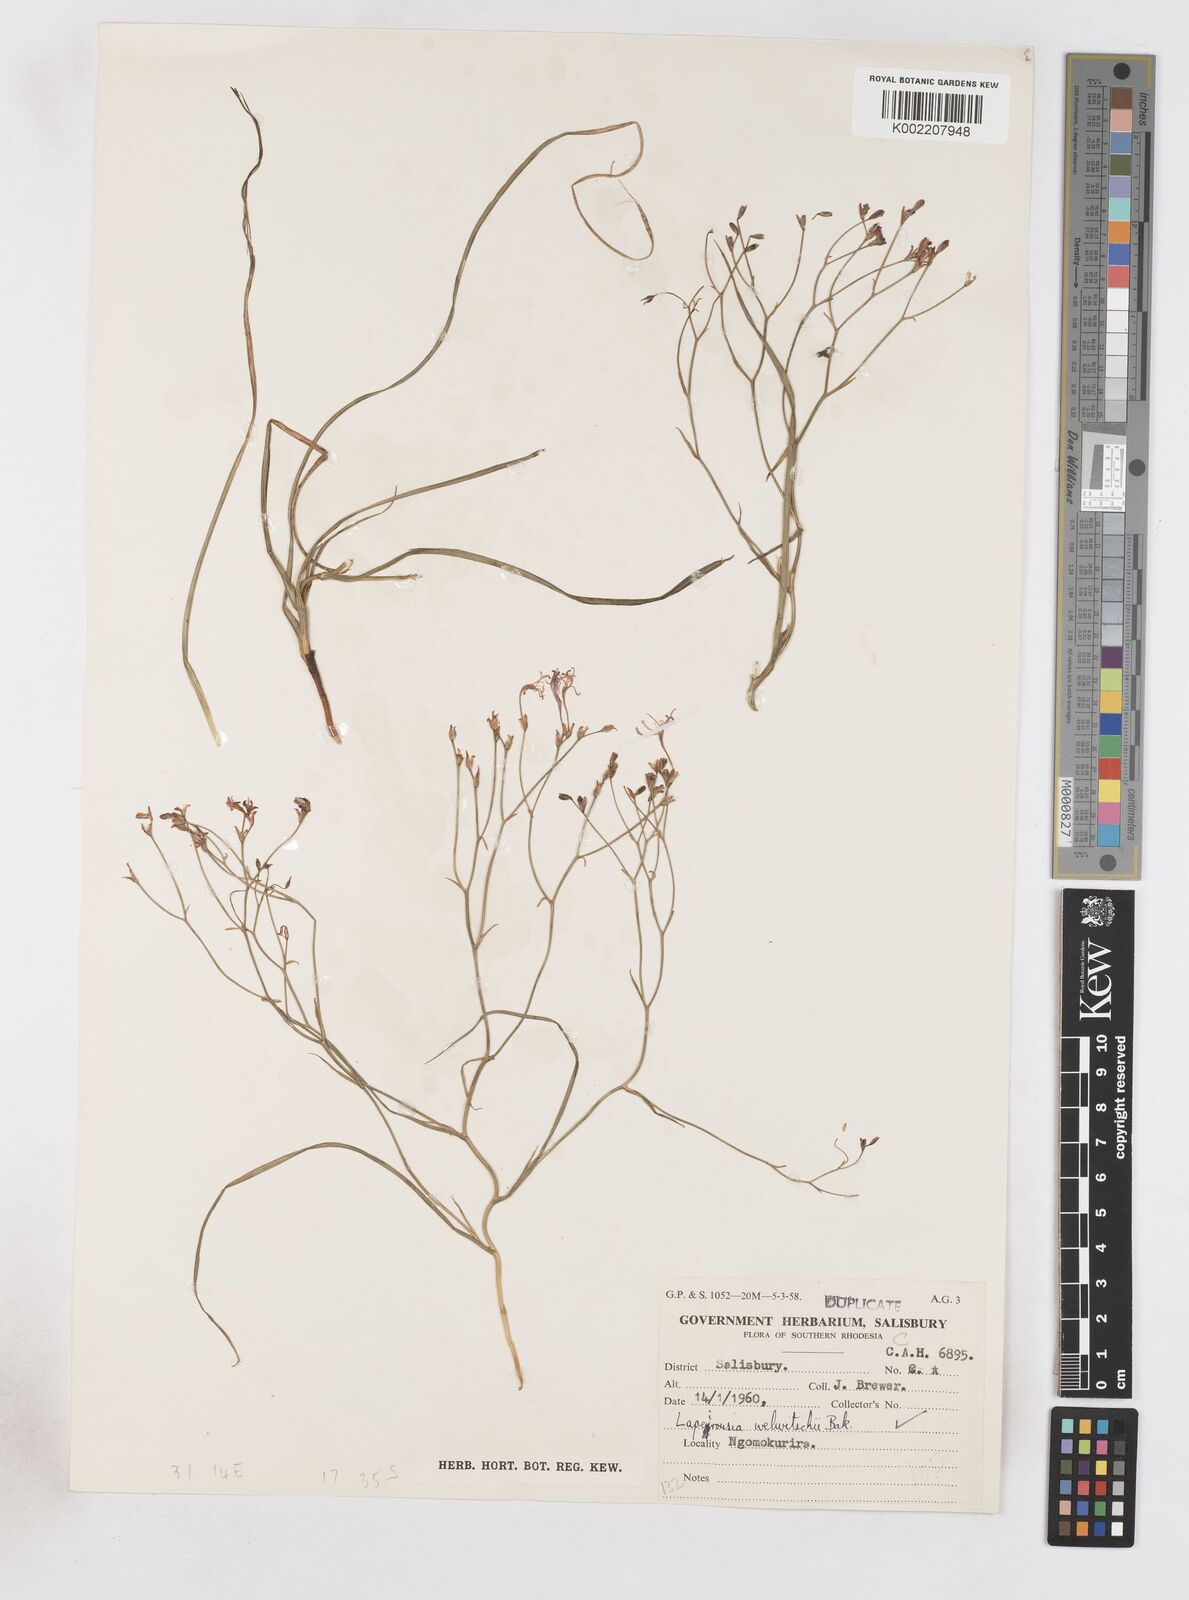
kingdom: Plantae
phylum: Tracheophyta
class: Liliopsida
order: Asparagales
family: Iridaceae
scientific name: Iridaceae
